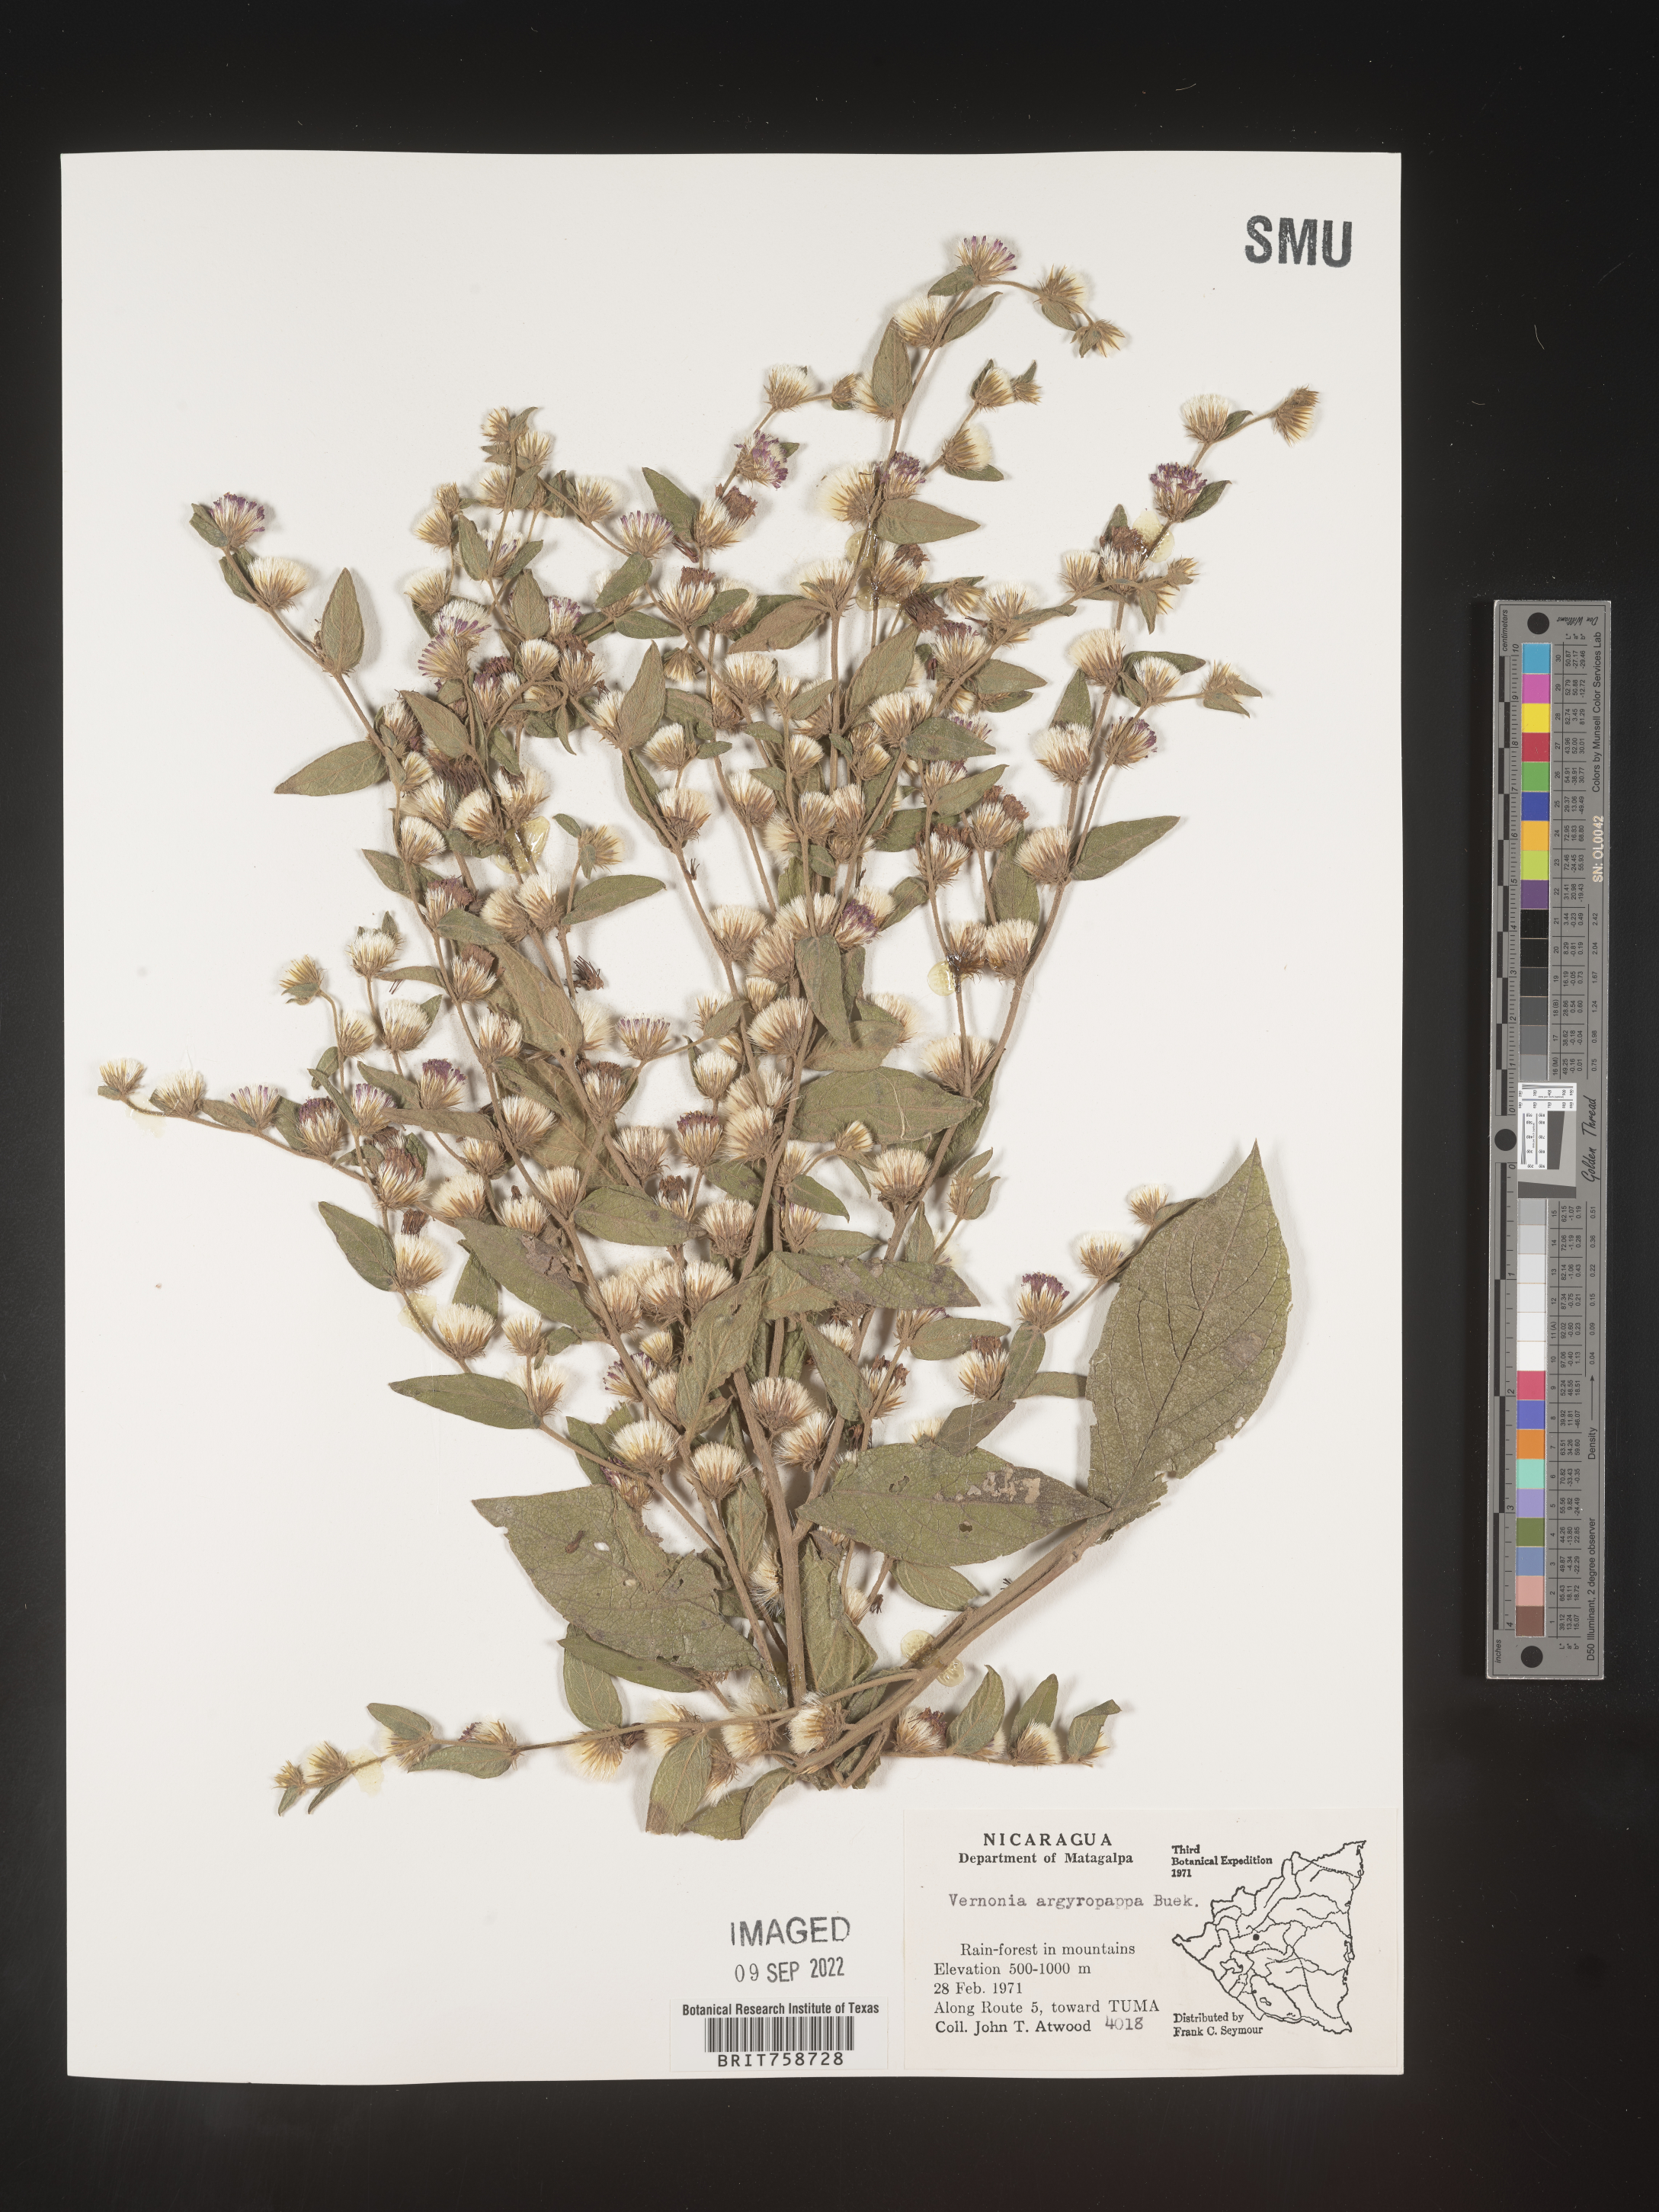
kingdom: Plantae
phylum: Tracheophyta
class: Magnoliopsida
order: Asterales
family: Asteraceae
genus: Vernonia
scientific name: Vernonia
